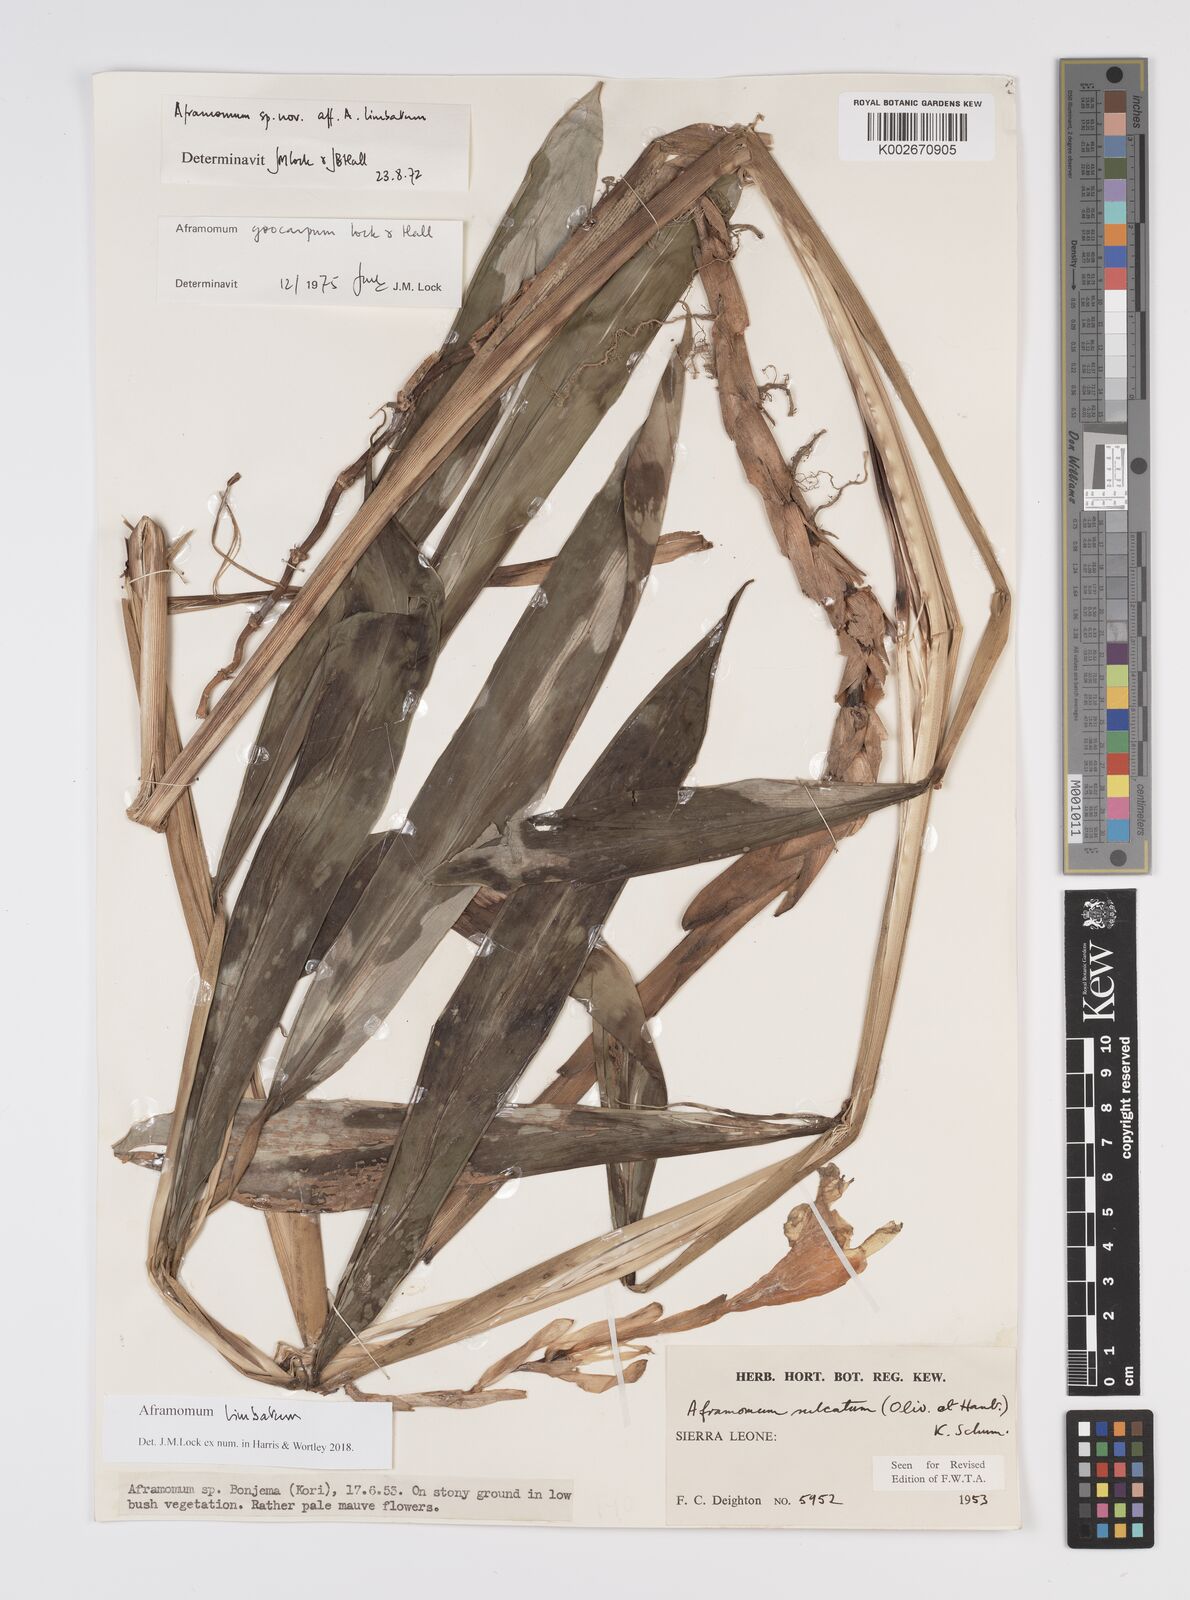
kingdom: Plantae
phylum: Tracheophyta
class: Liliopsida
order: Zingiberales
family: Zingiberaceae
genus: Aframomum
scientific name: Aframomum limbatum
